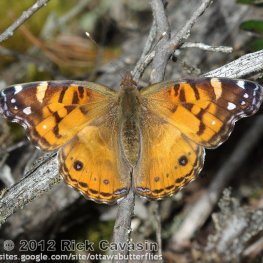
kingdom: Animalia
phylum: Arthropoda
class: Insecta
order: Lepidoptera
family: Nymphalidae
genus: Vanessa
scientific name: Vanessa virginiensis
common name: American Lady
